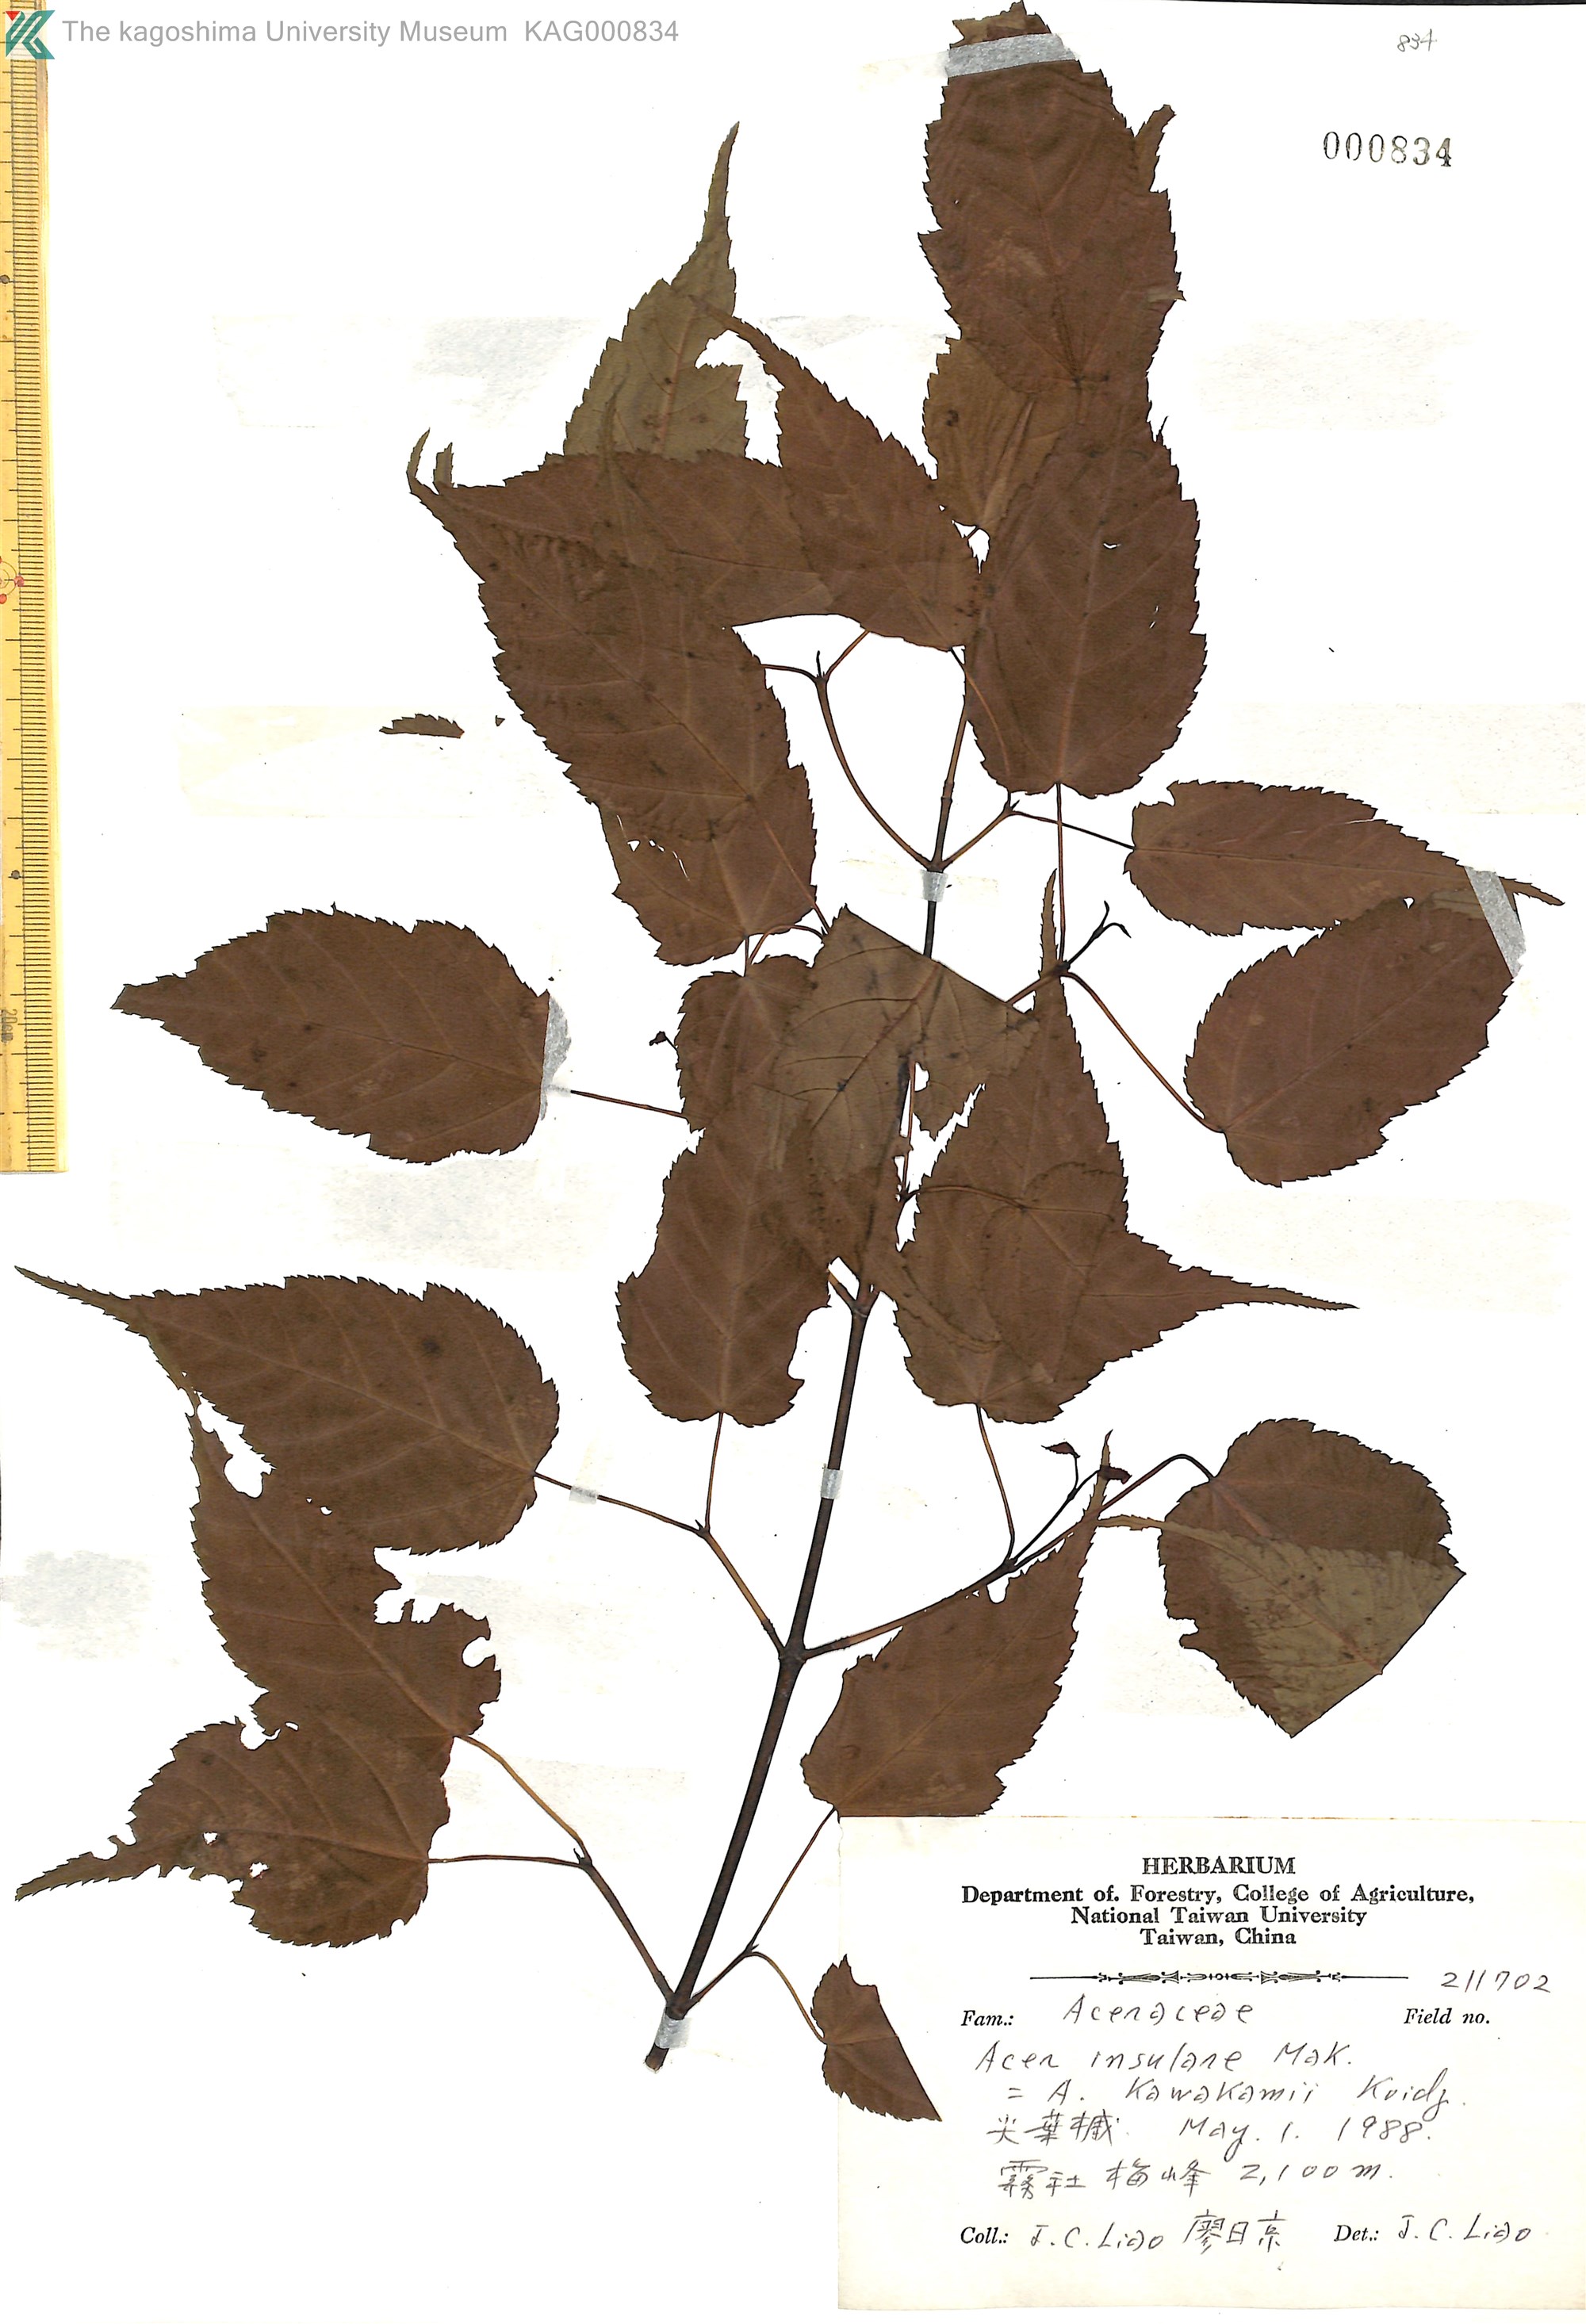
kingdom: Plantae
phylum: Tracheophyta
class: Magnoliopsida
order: Sapindales
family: Sapindaceae
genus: Acer
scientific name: Acer caudatifolium
